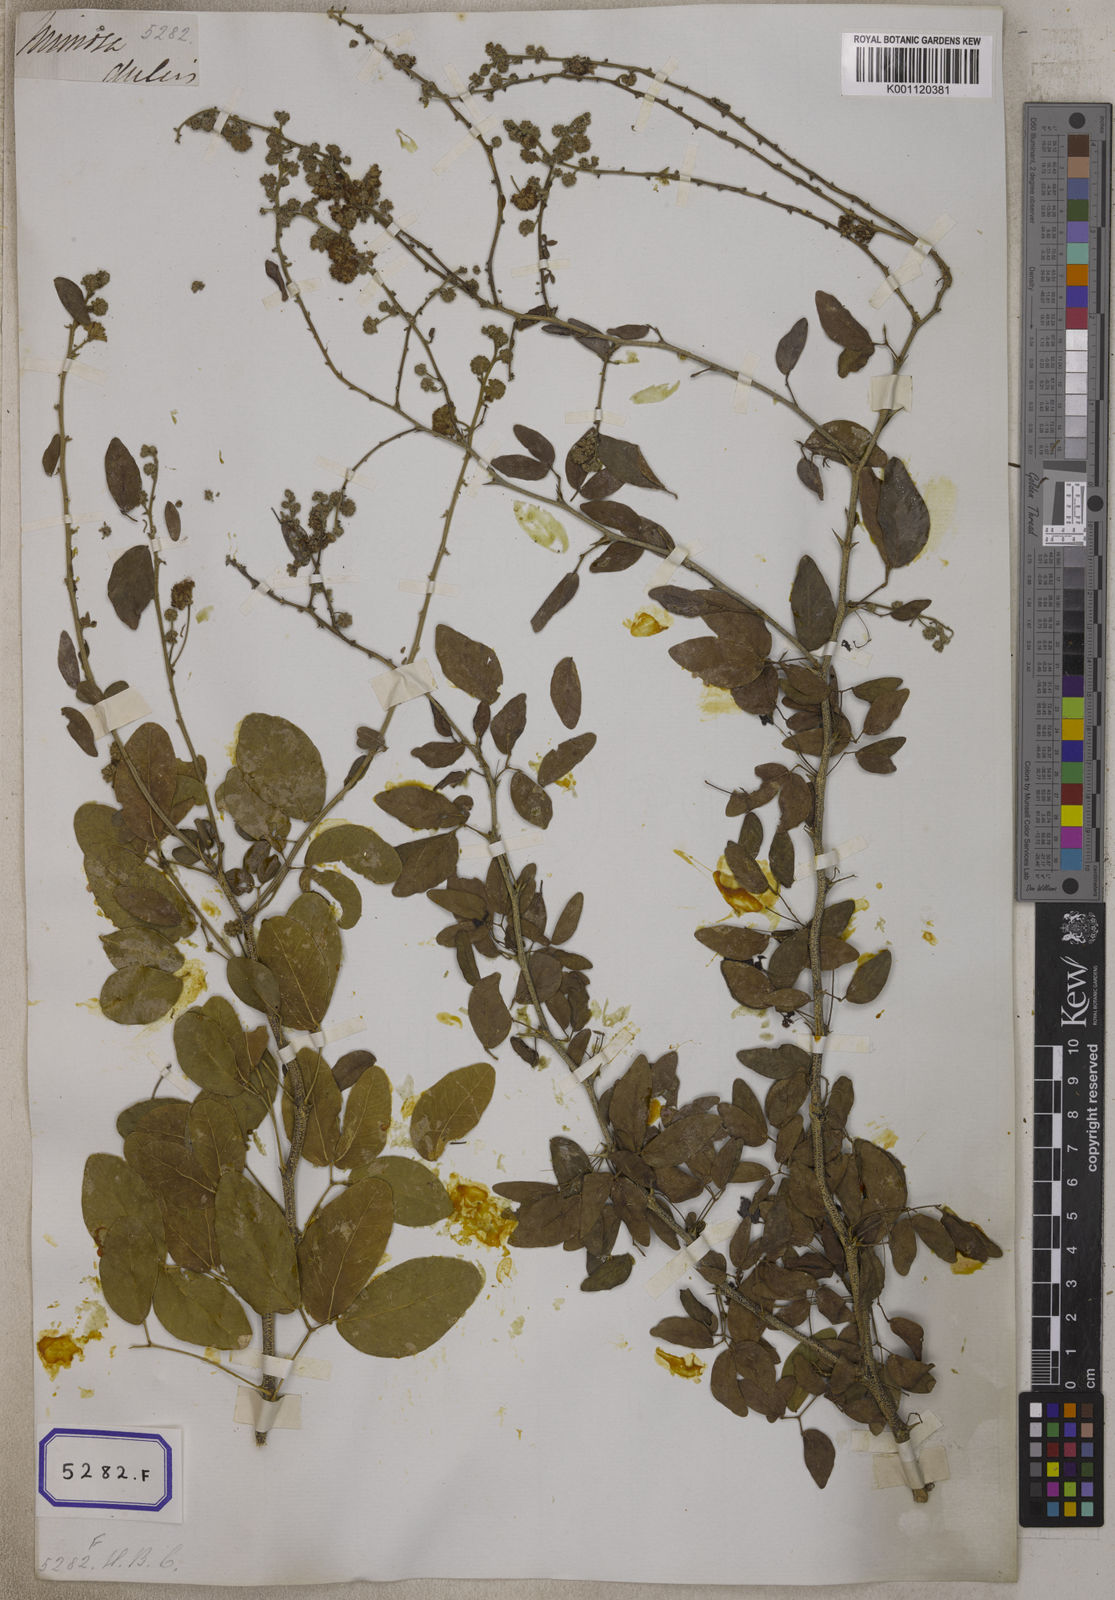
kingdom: Plantae
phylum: Tracheophyta
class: Magnoliopsida
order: Fabales
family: Fabaceae
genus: Pithecellobium
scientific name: Pithecellobium dulce
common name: Monkeypod
